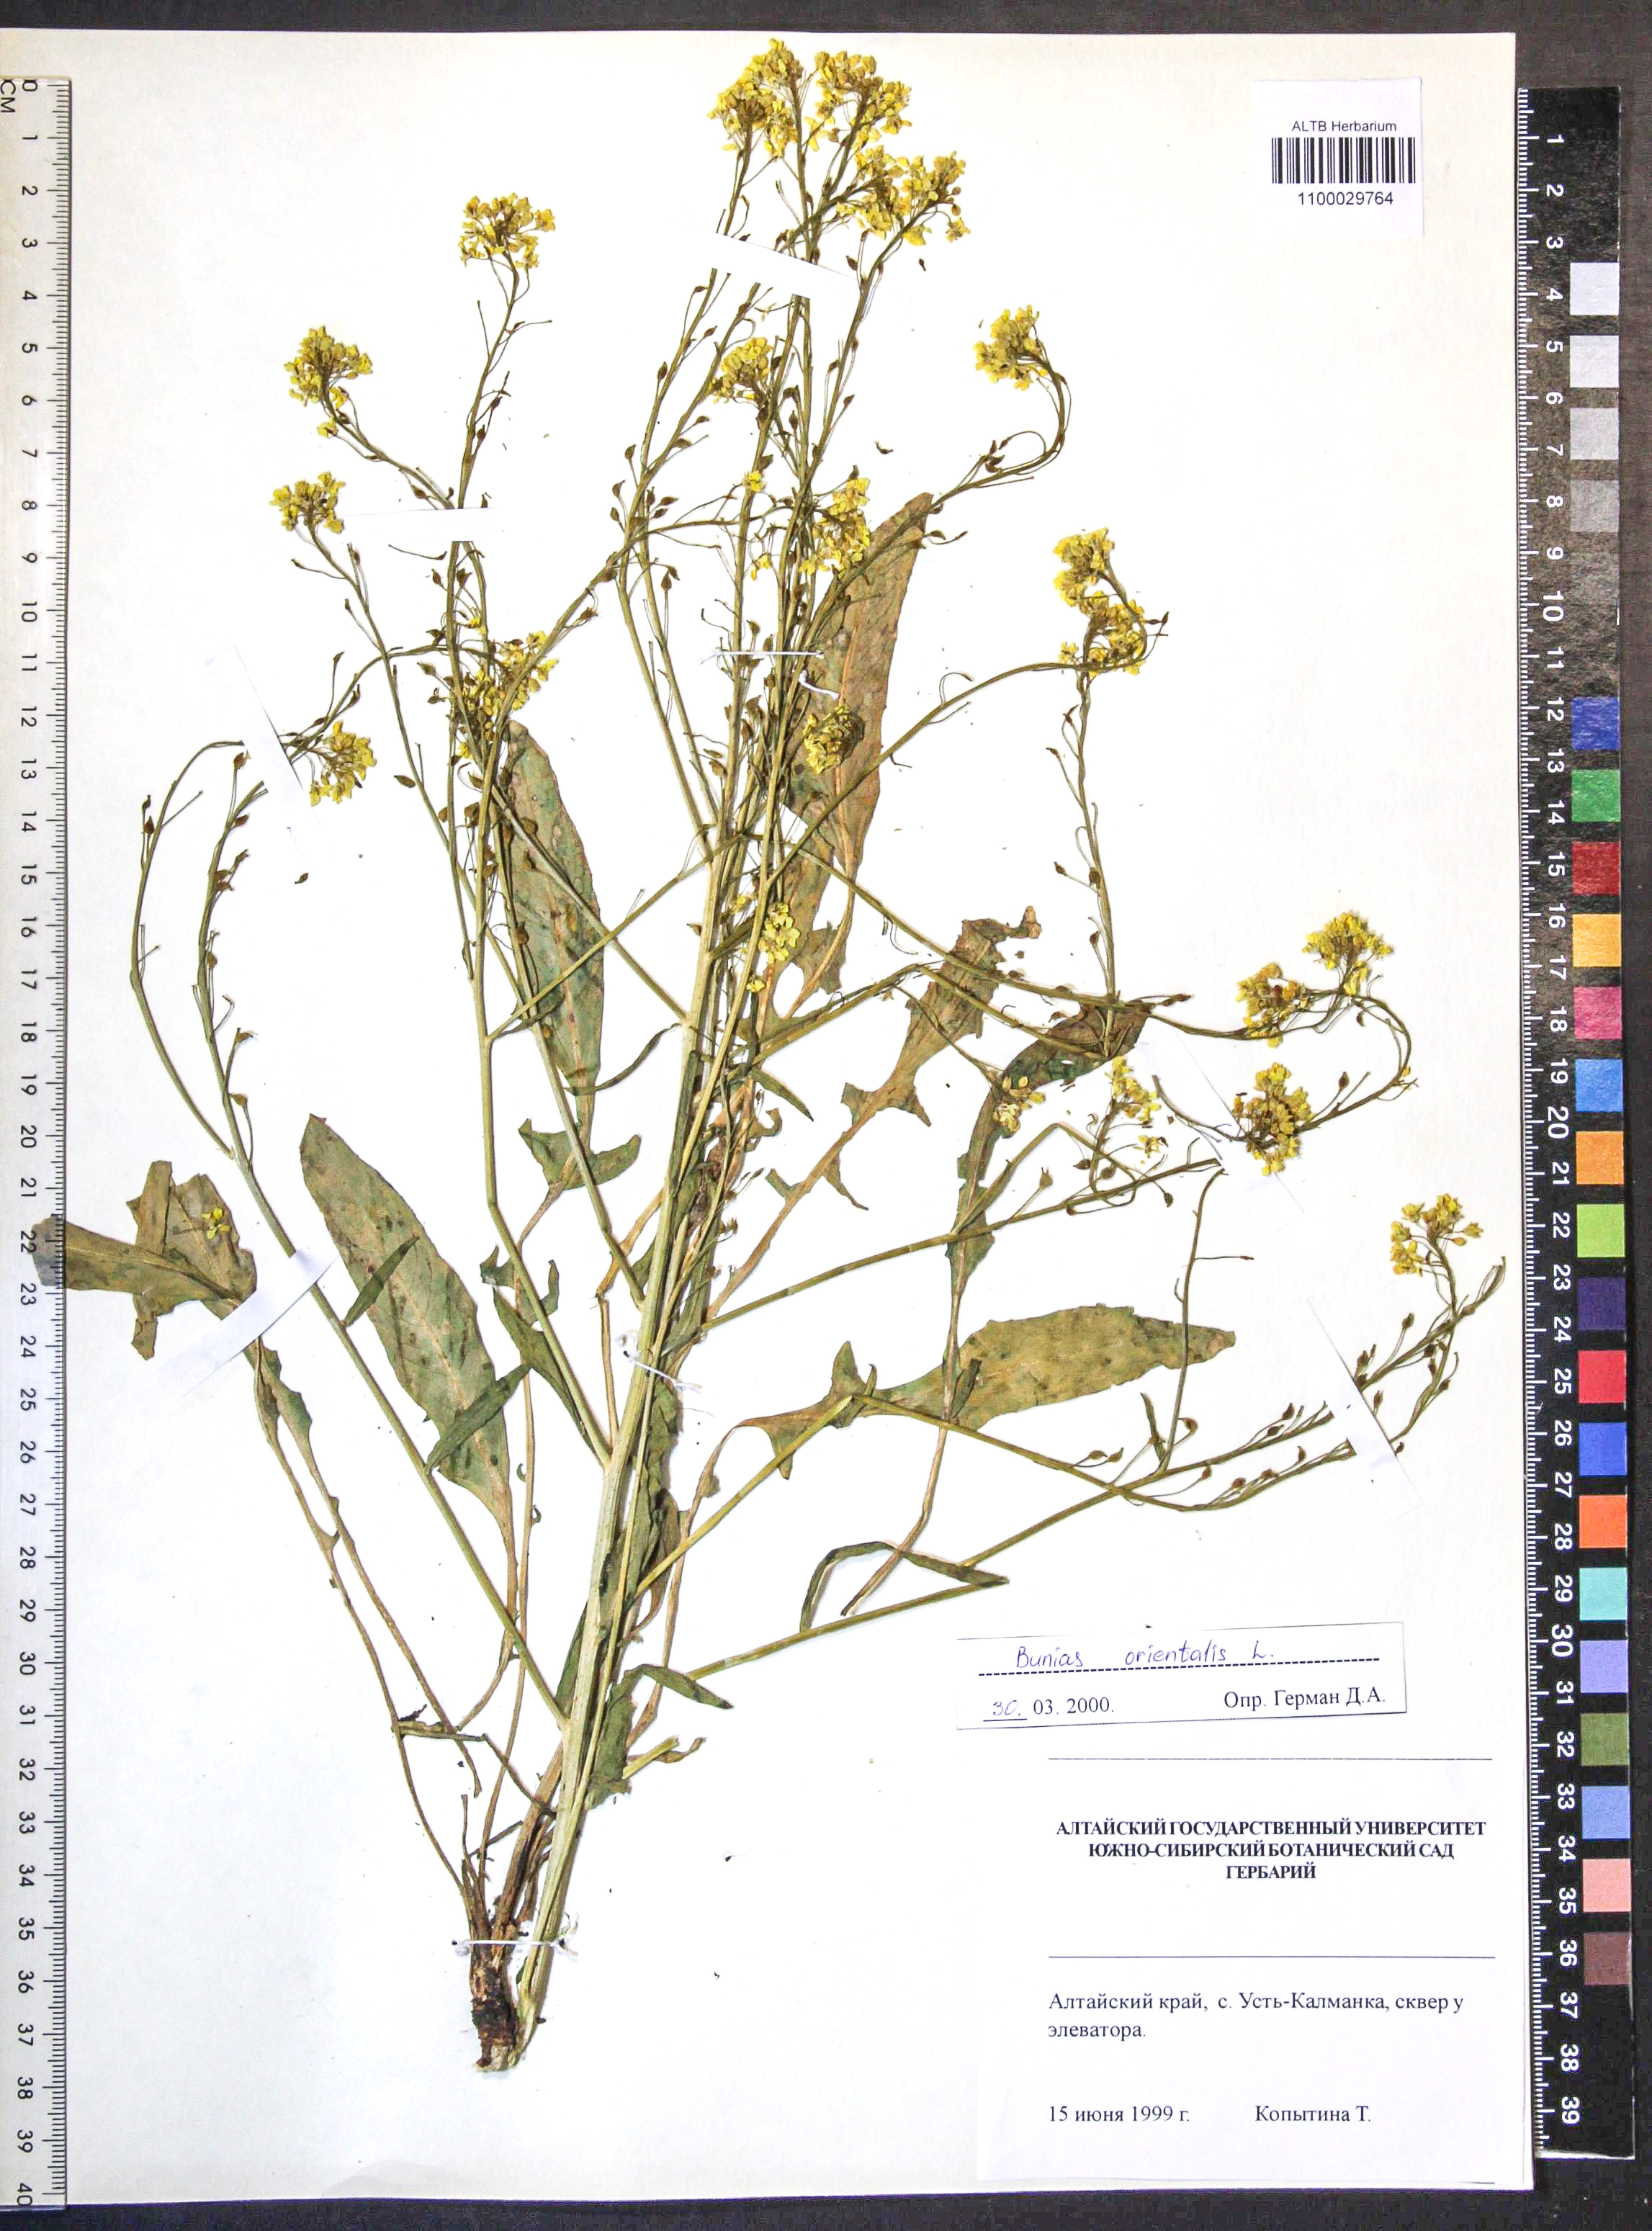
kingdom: Plantae
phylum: Tracheophyta
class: Magnoliopsida
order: Brassicales
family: Brassicaceae
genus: Bunias
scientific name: Bunias orientalis
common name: Warty-cabbage
